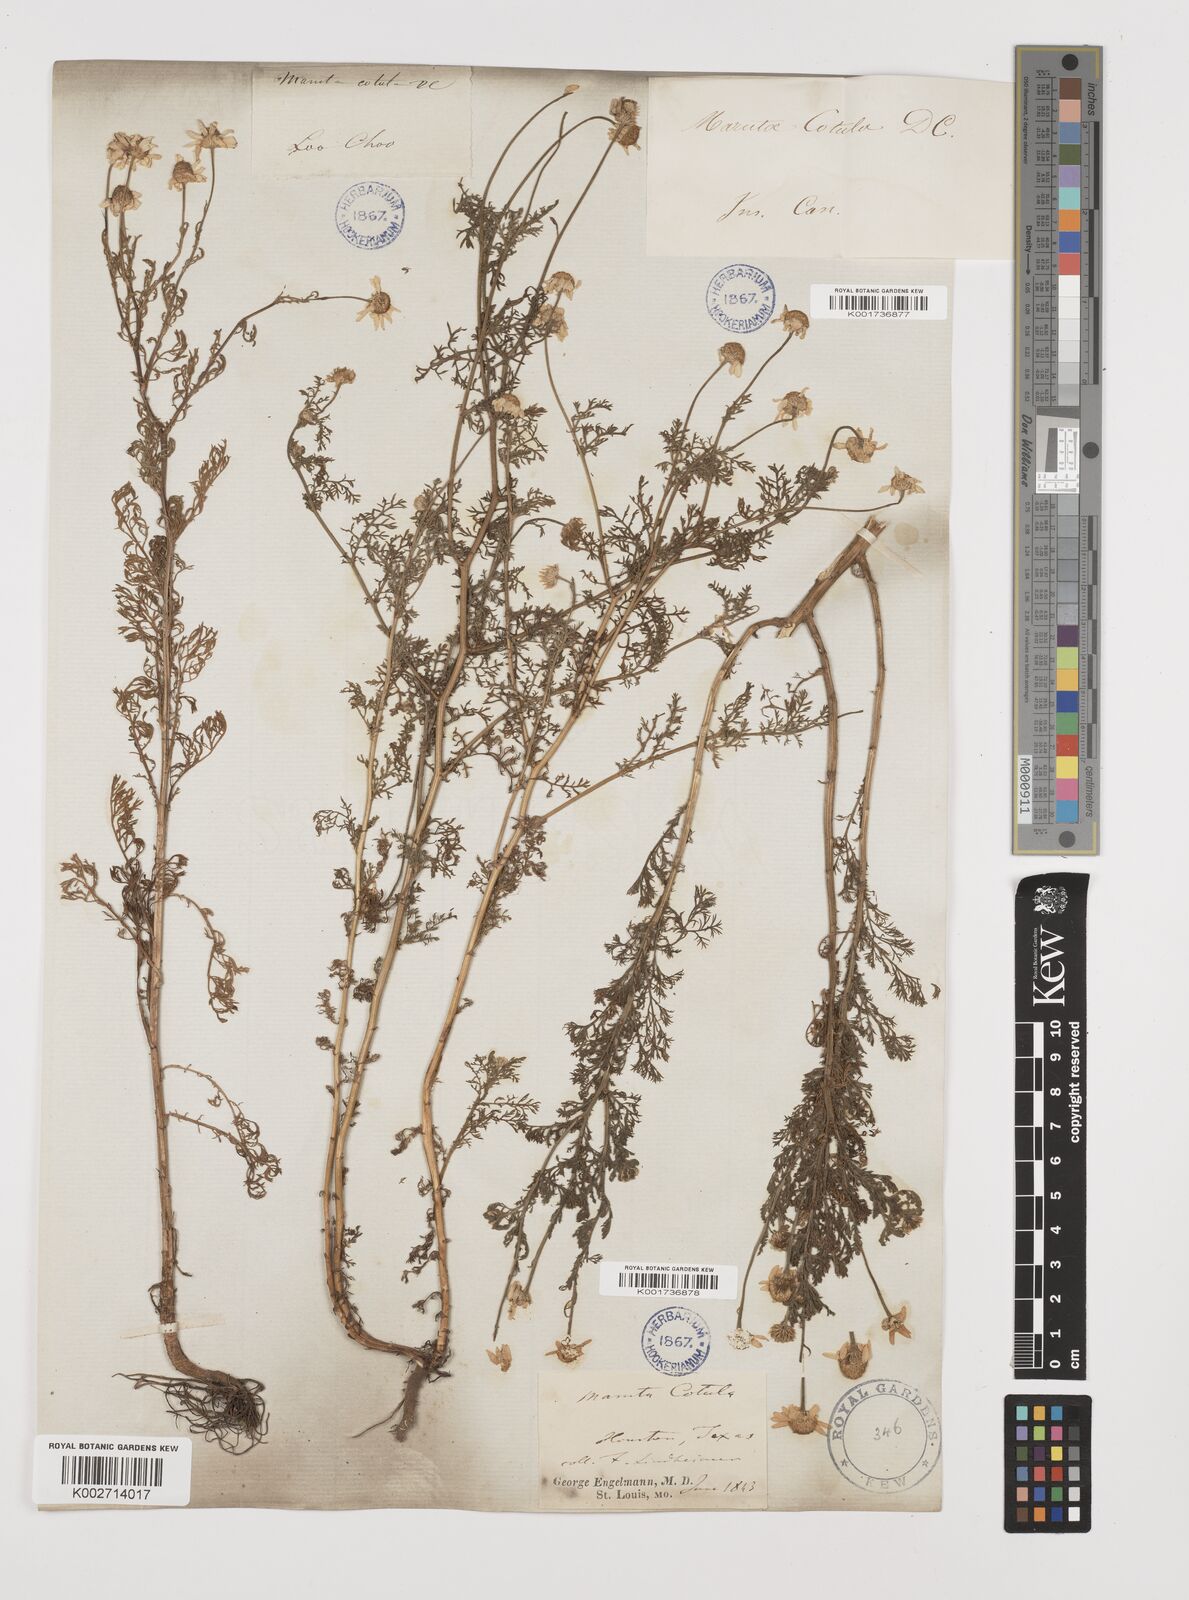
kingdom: Plantae
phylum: Tracheophyta
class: Magnoliopsida
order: Asterales
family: Asteraceae
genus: Anthemis
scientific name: Anthemis cotula
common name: Stinking chamomile
